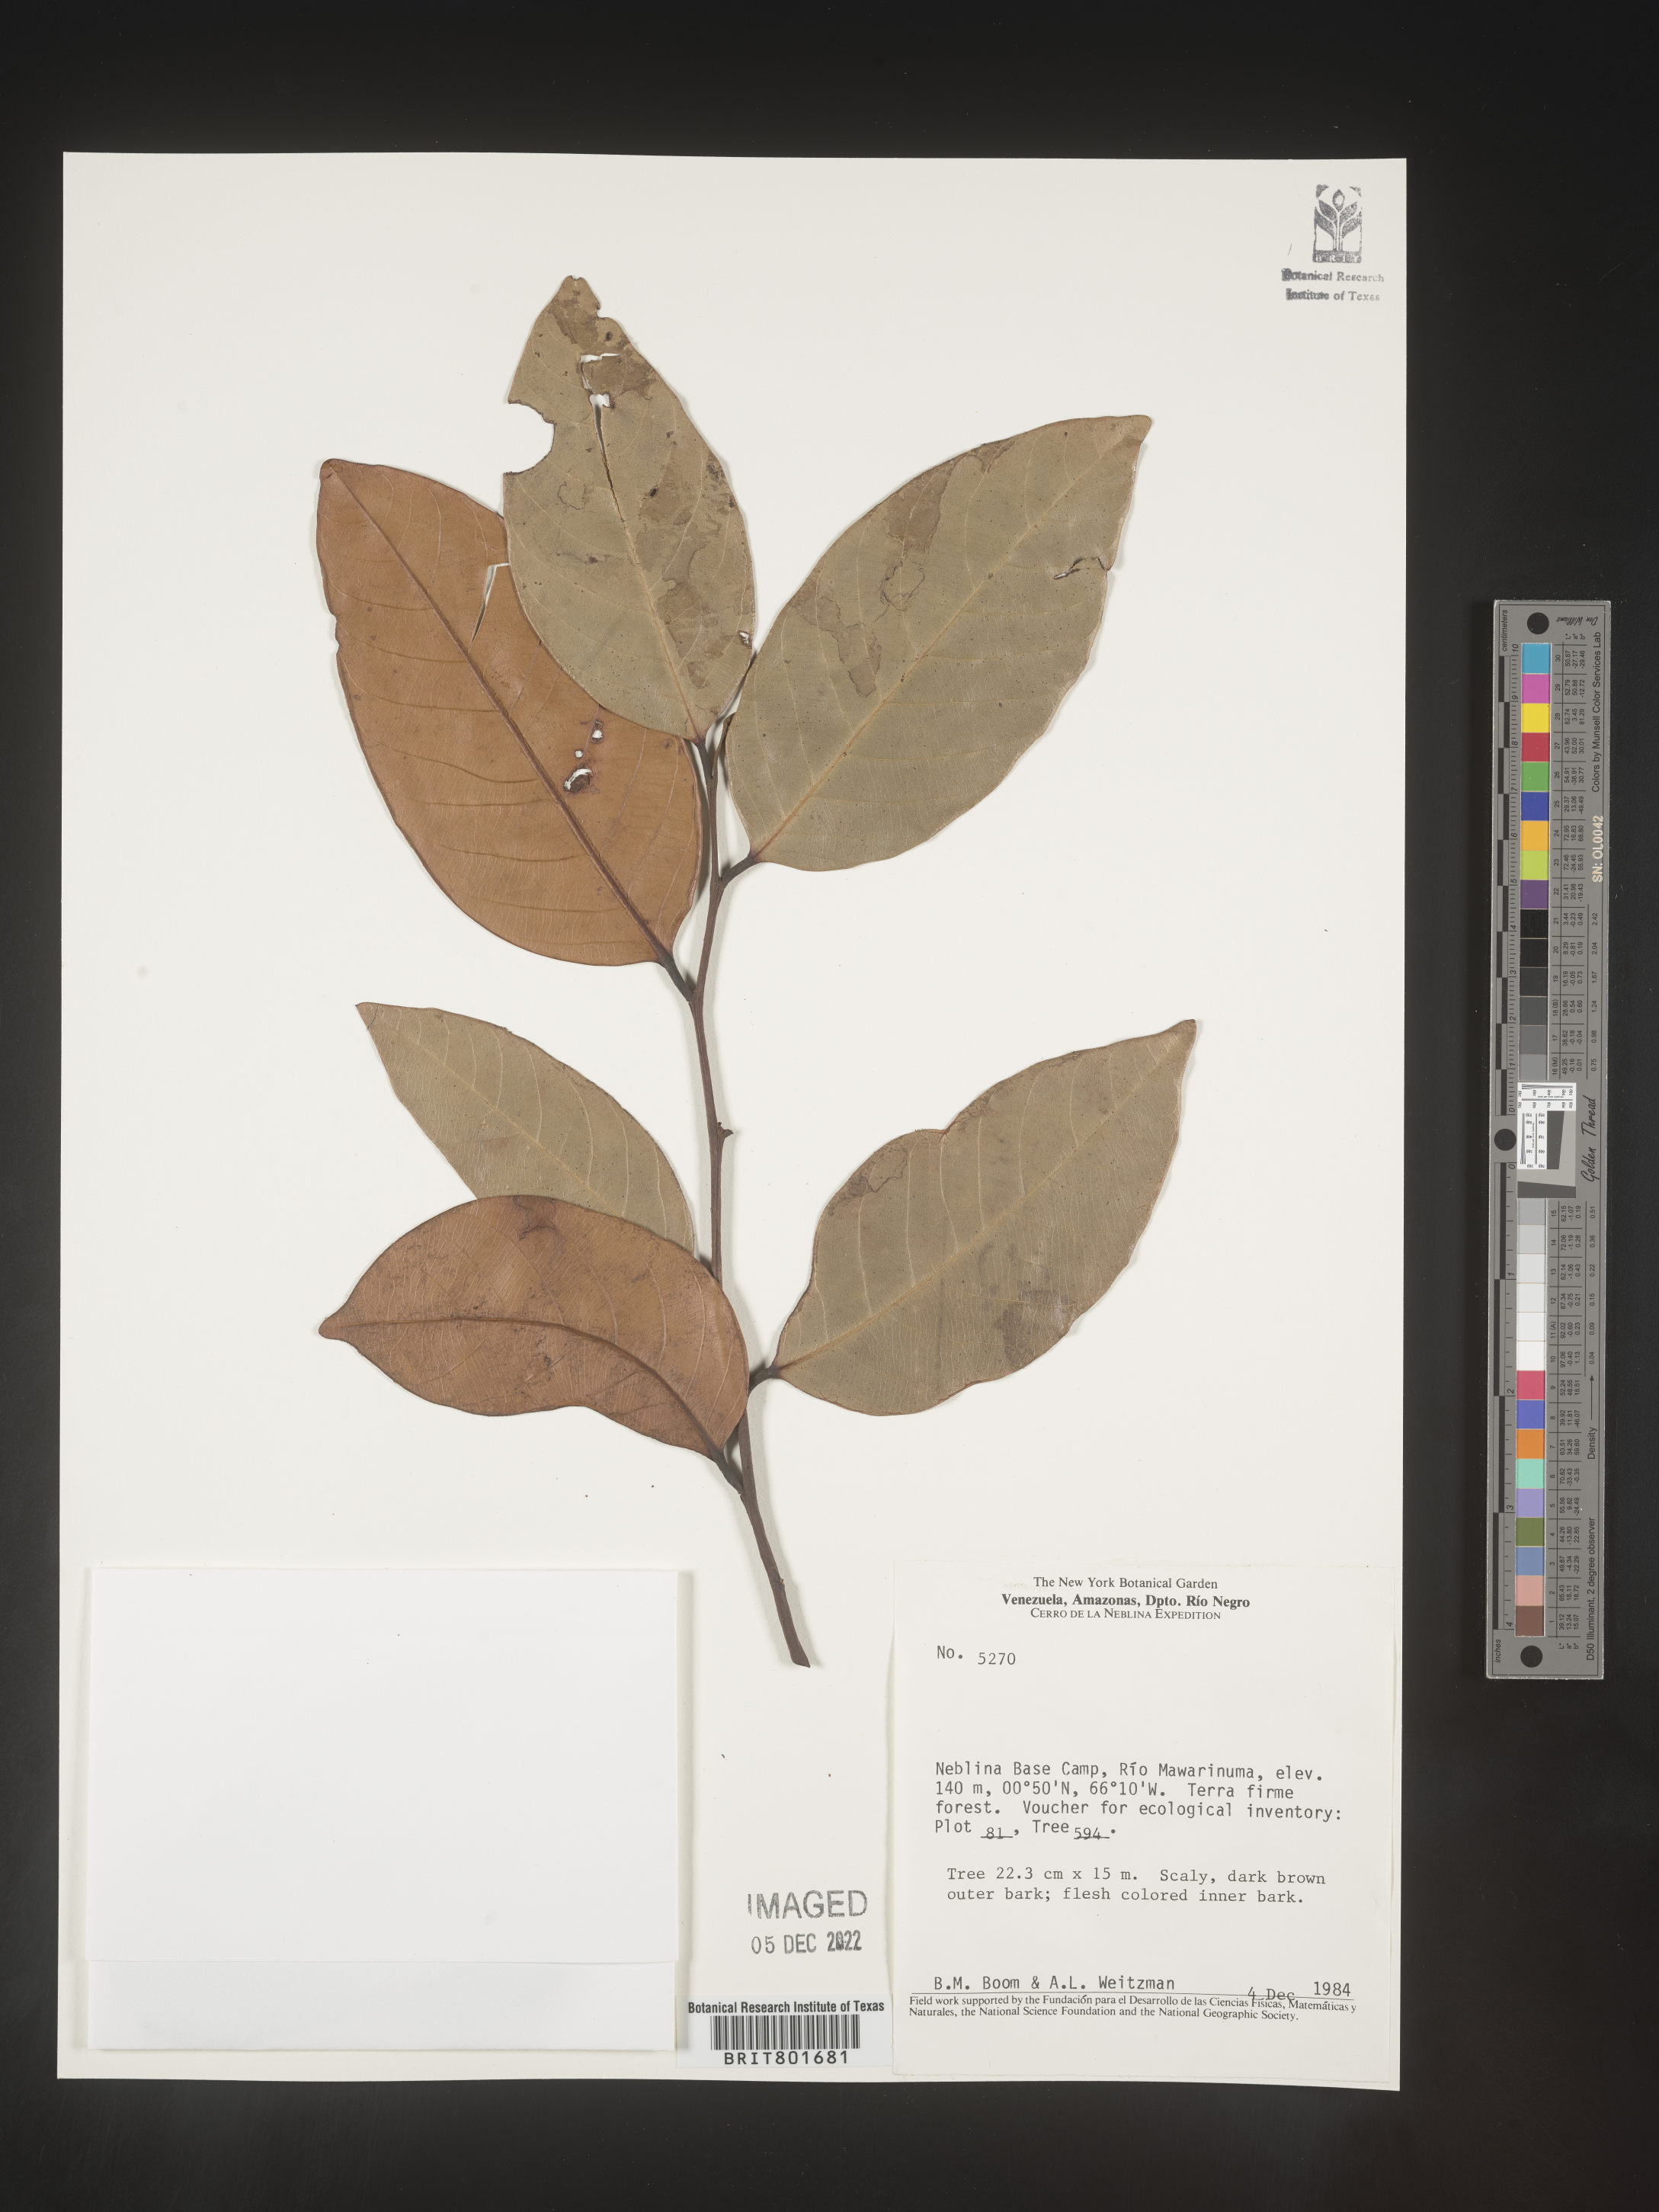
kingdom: Plantae
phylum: Tracheophyta
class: Magnoliopsida
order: Malpighiales
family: Clusiaceae
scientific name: Clusiaceae
